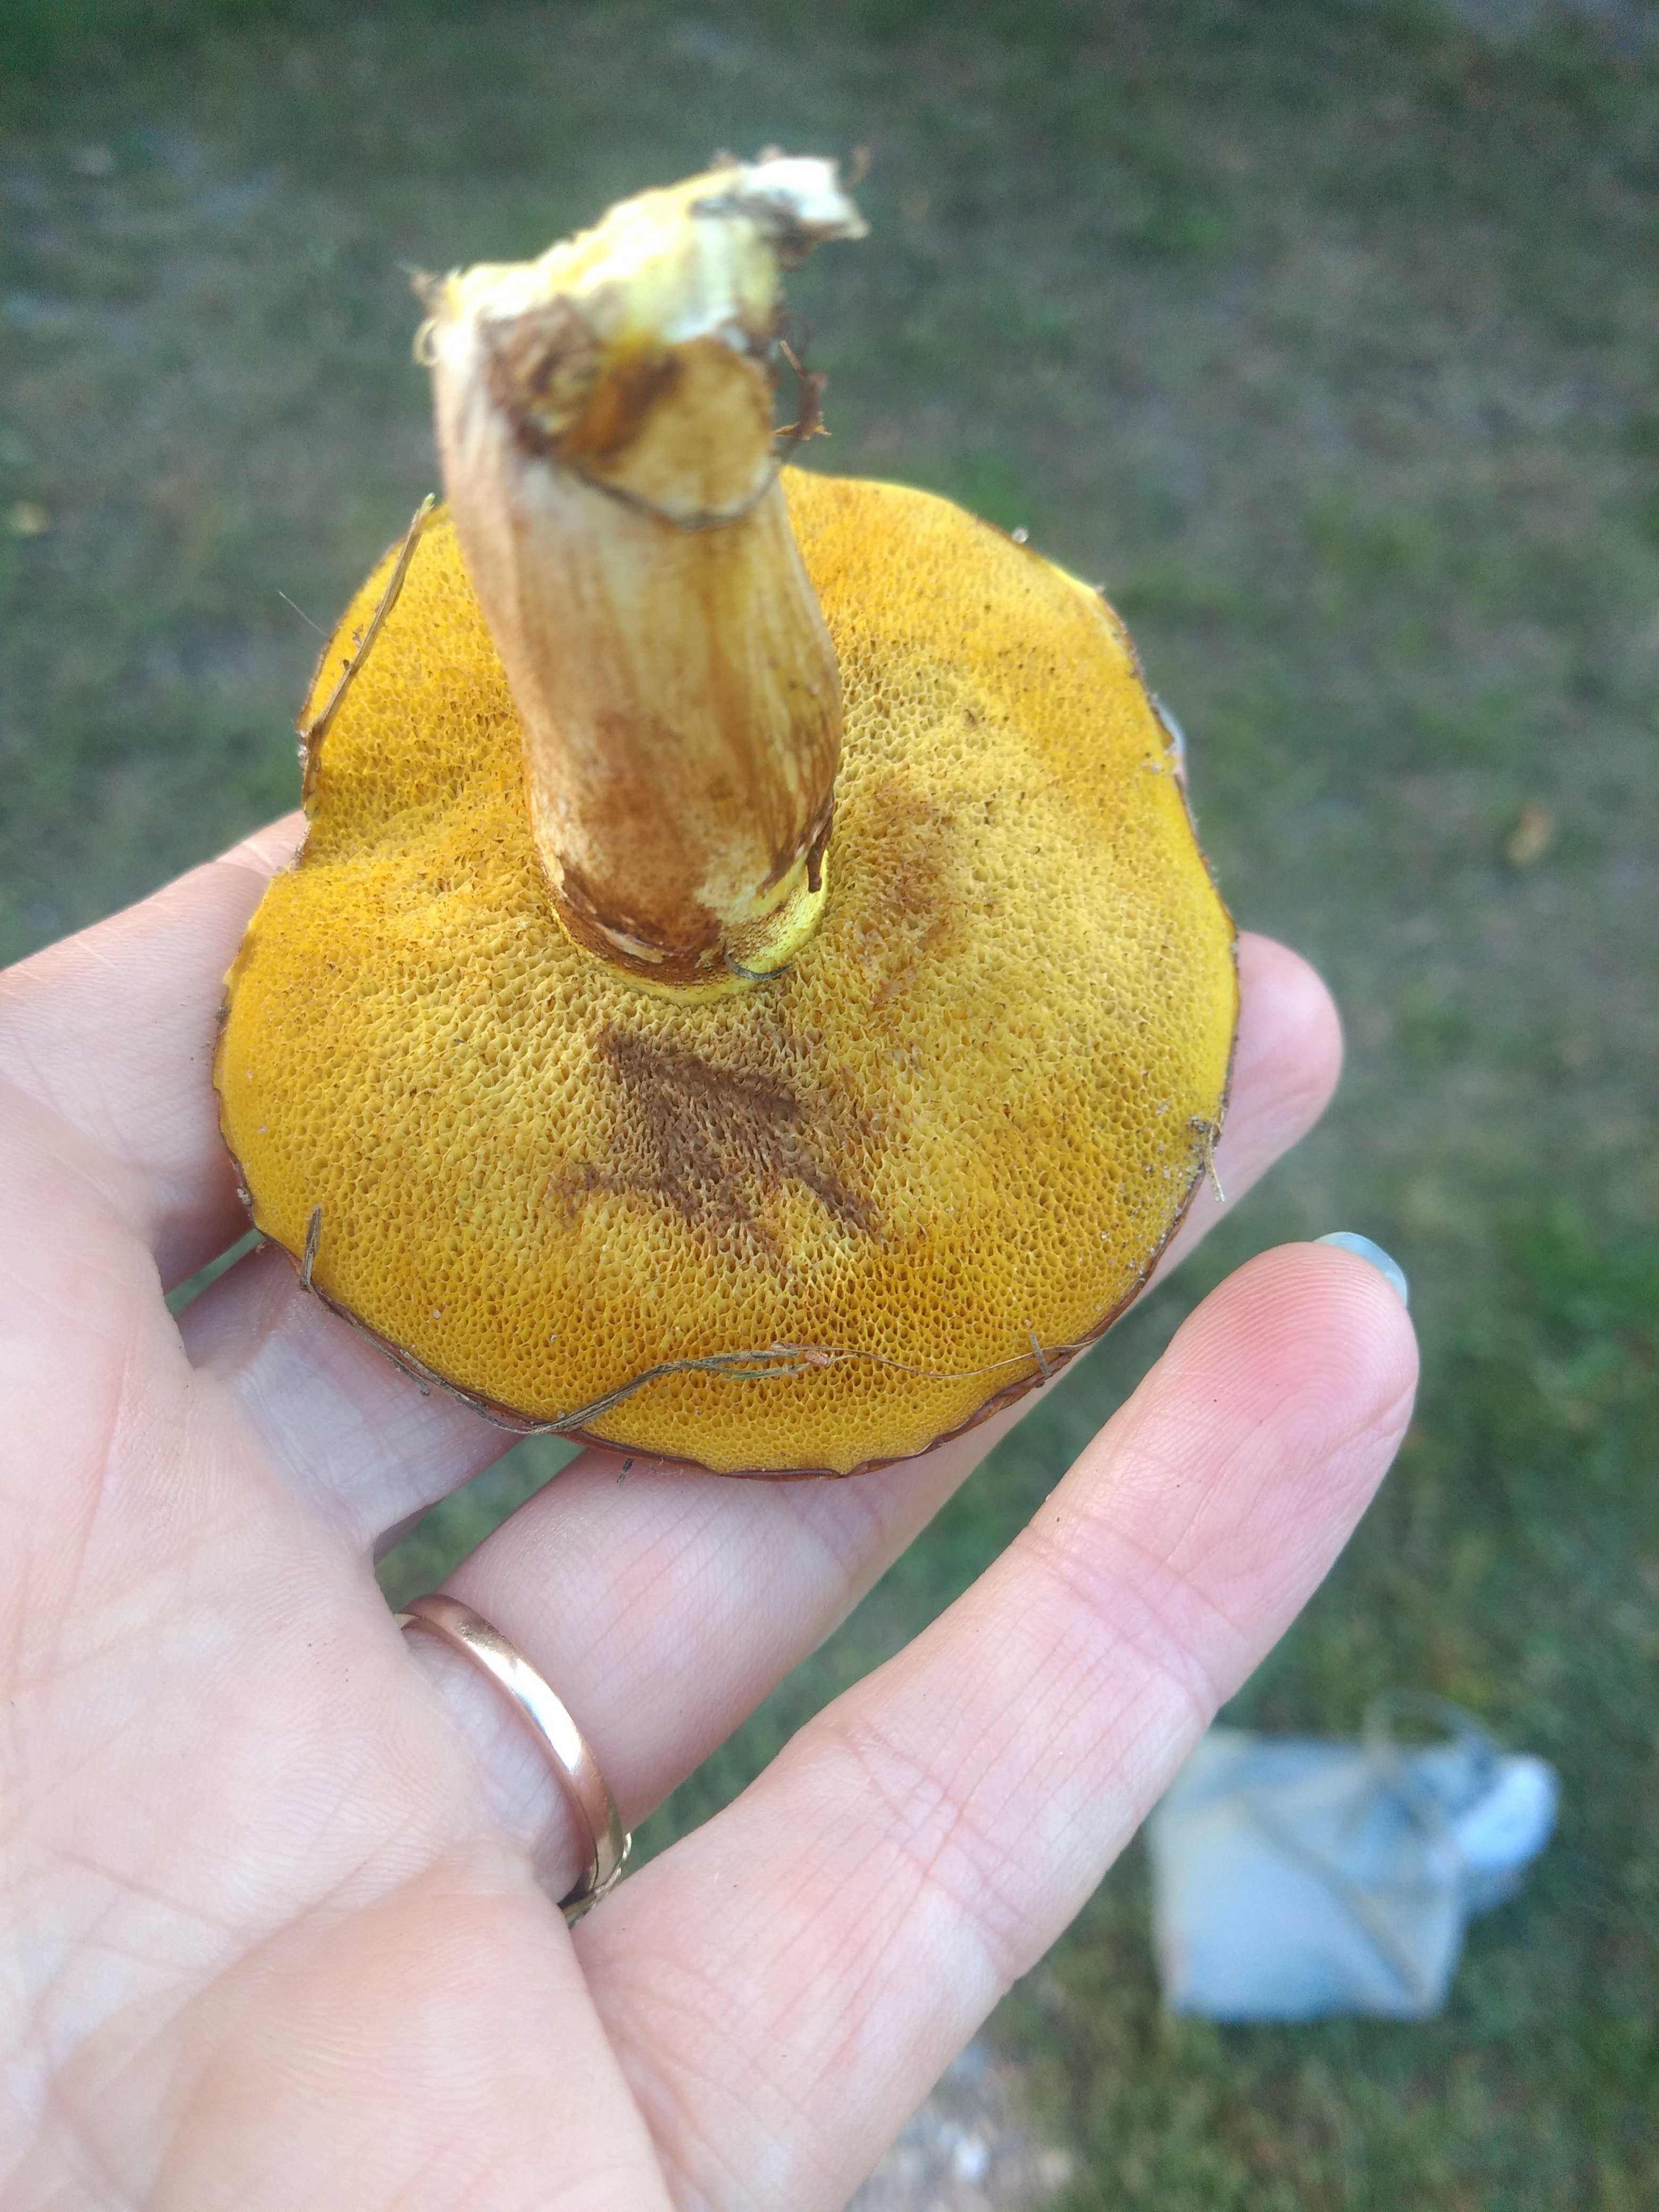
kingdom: Fungi
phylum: Basidiomycota
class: Agaricomycetes
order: Boletales
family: Suillaceae
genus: Suillus
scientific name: Suillus luteus
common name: brungul slimrørhat
